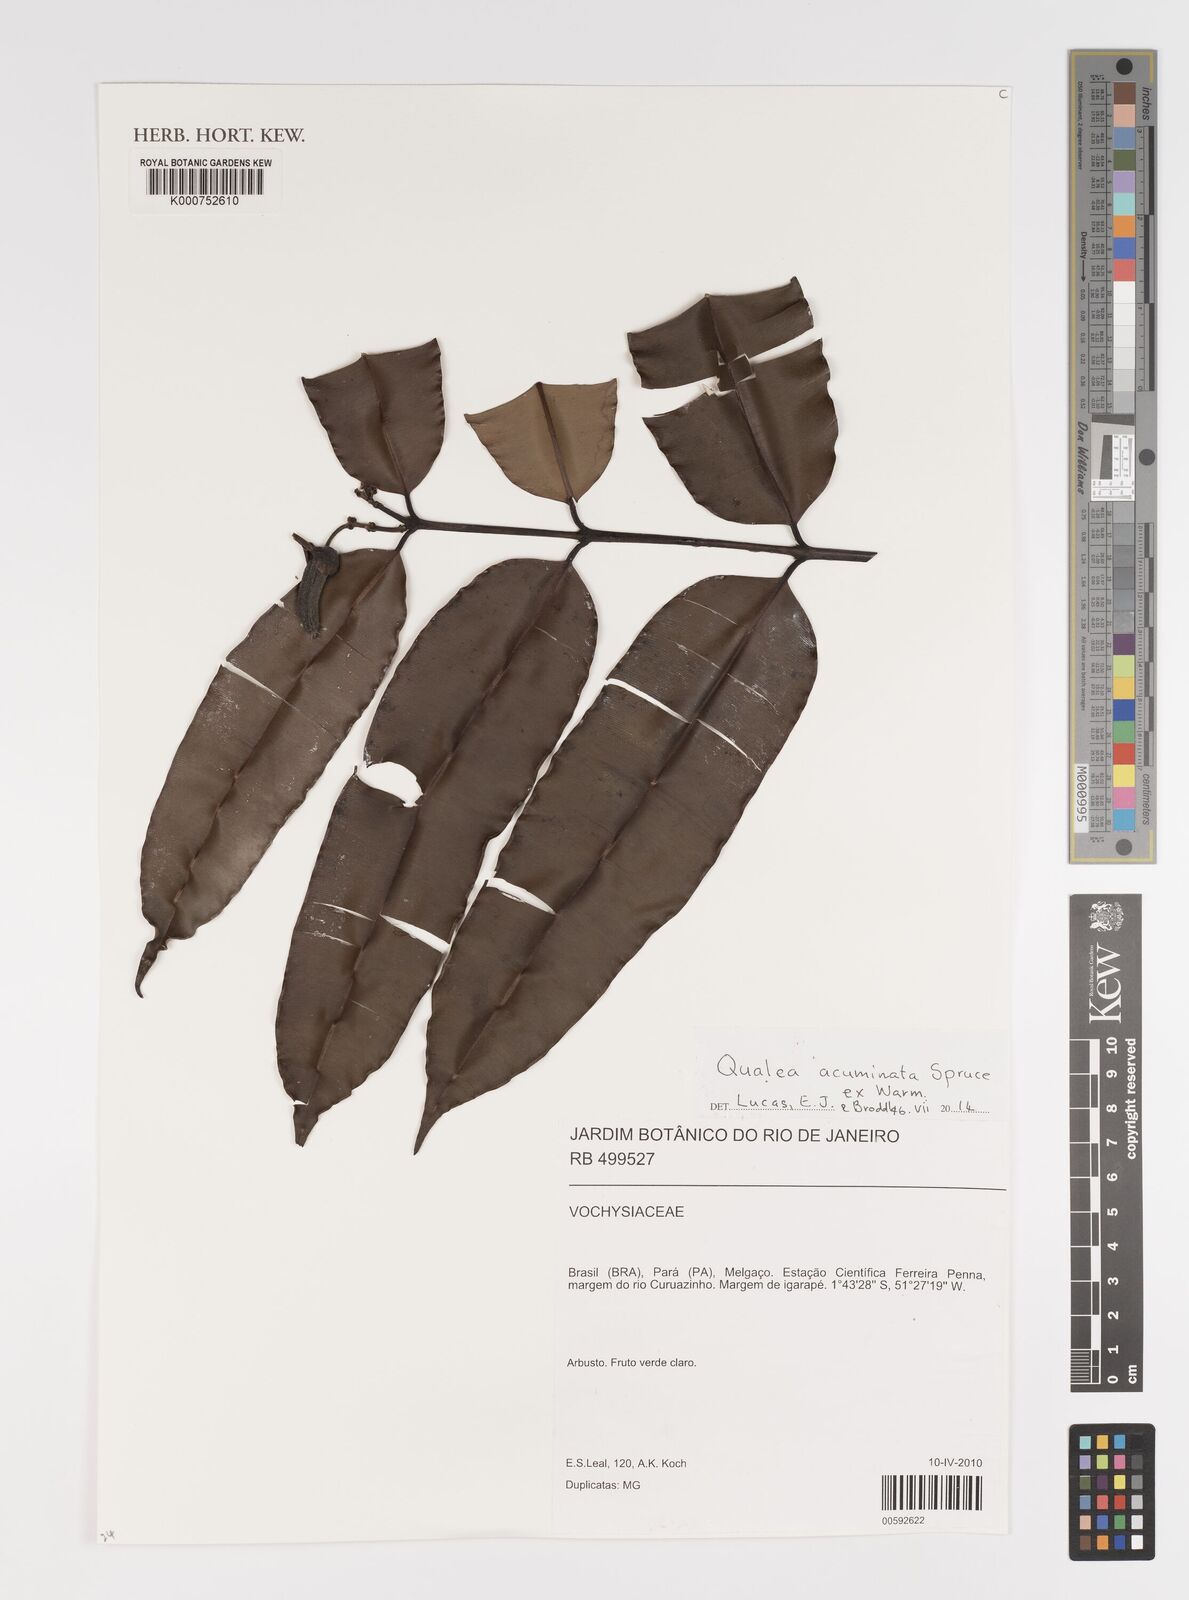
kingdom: Plantae
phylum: Tracheophyta
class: Magnoliopsida
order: Myrtales
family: Vochysiaceae
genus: Qualea
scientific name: Qualea acuminata
